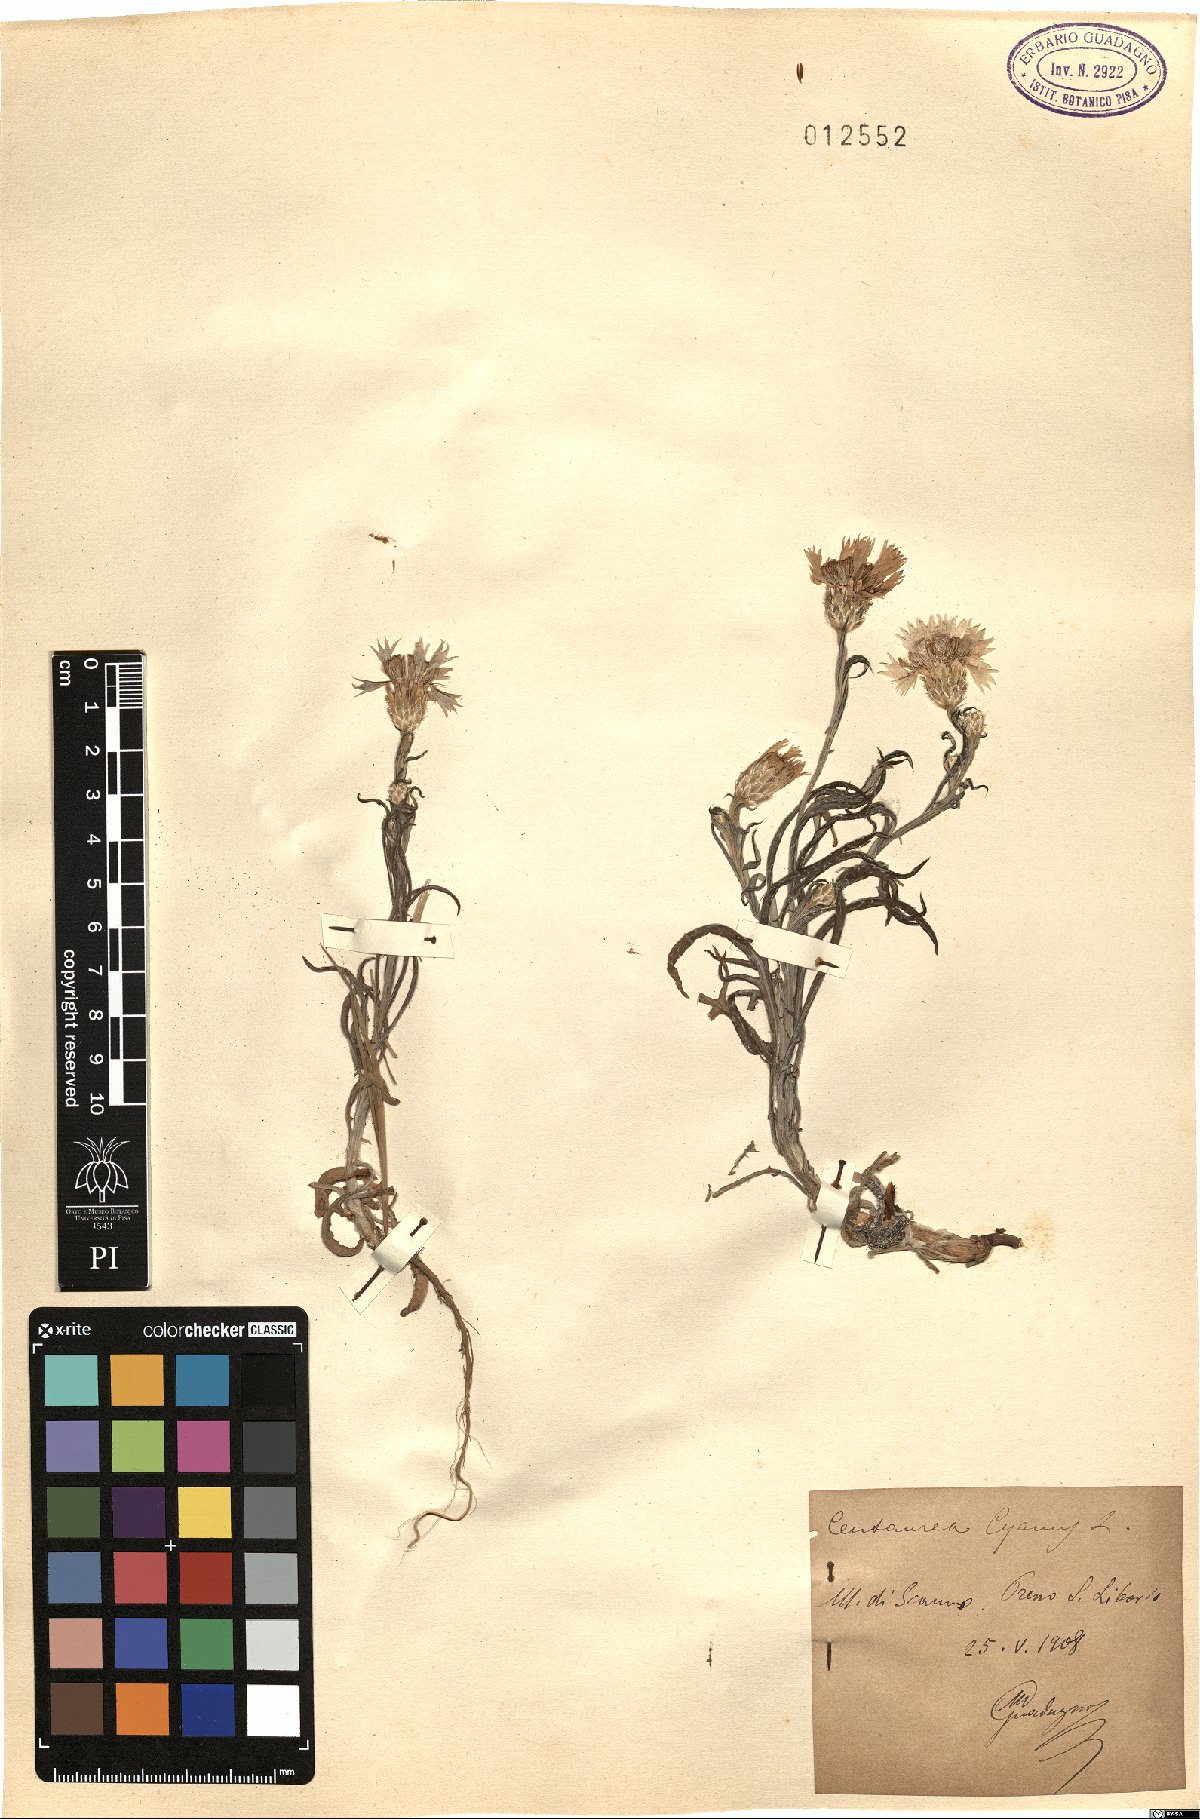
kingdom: Plantae
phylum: Tracheophyta
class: Magnoliopsida
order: Asterales
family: Asteraceae
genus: Centaurea
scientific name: Centaurea cyanus
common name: Cornflower
